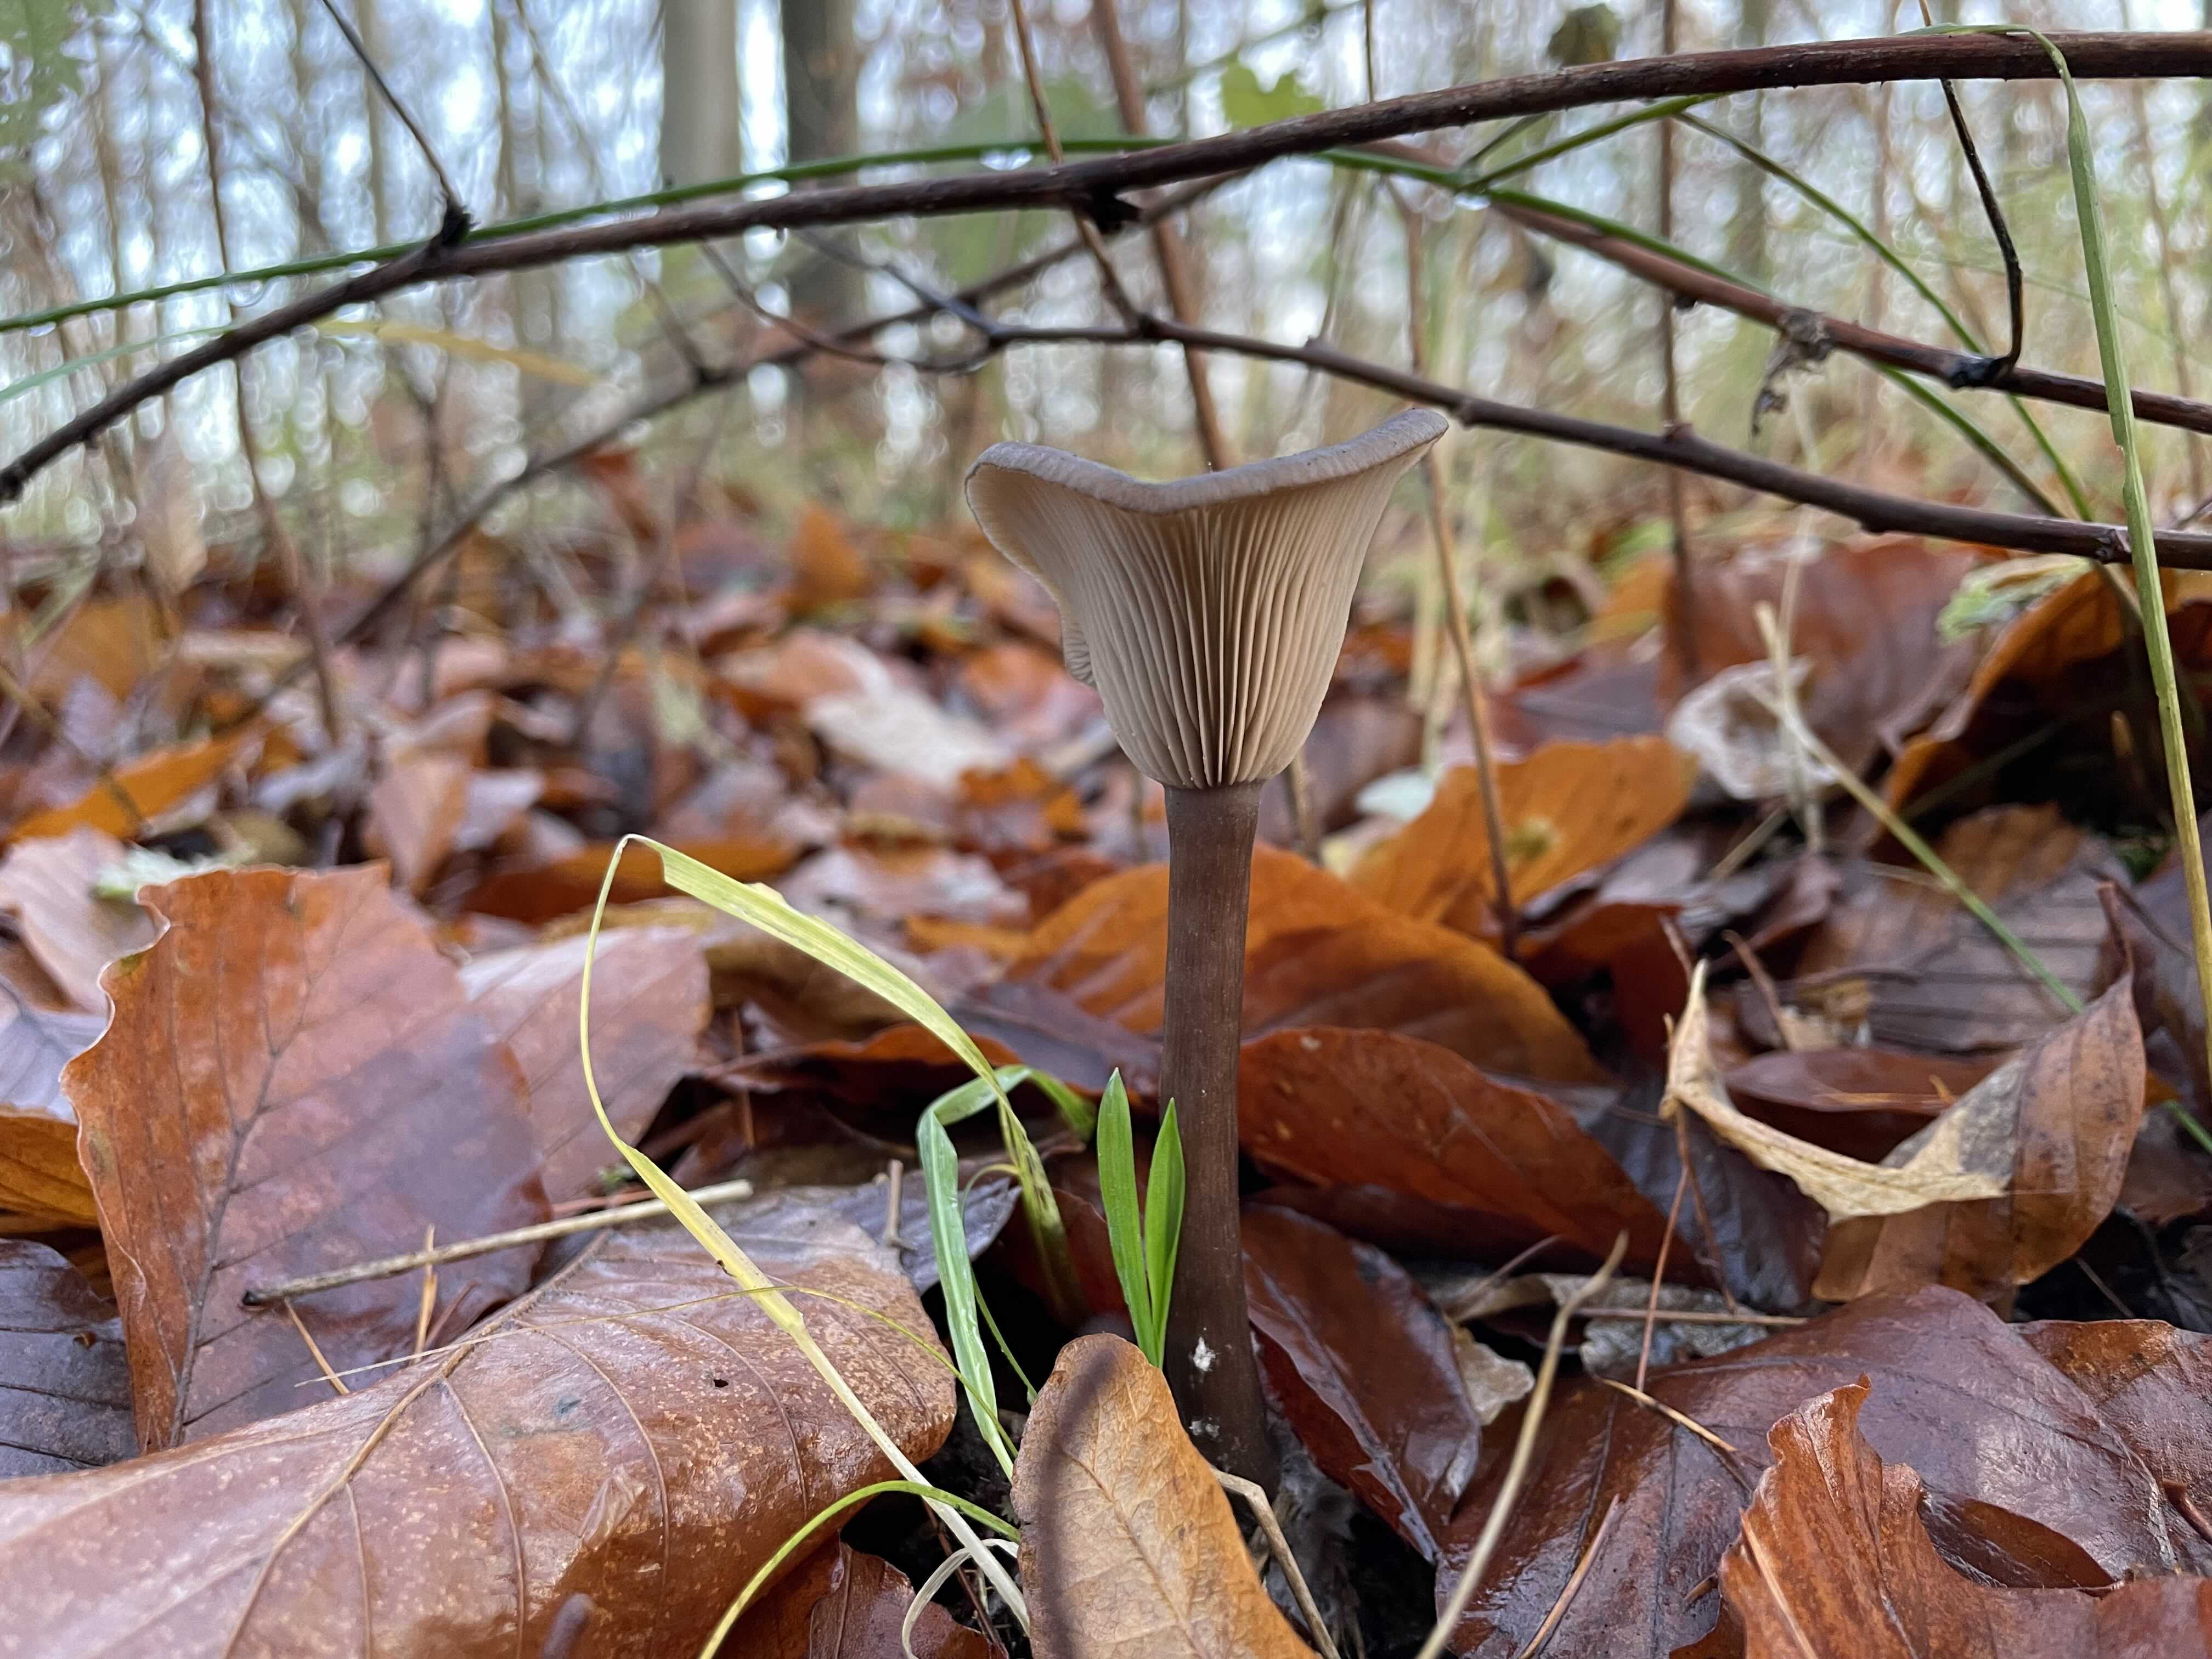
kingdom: Fungi
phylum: Basidiomycota
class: Agaricomycetes
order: Agaricales
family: Pseudoclitocybaceae
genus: Pseudoclitocybe
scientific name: Pseudoclitocybe cyathiformis
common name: almindelig bægertragthat
